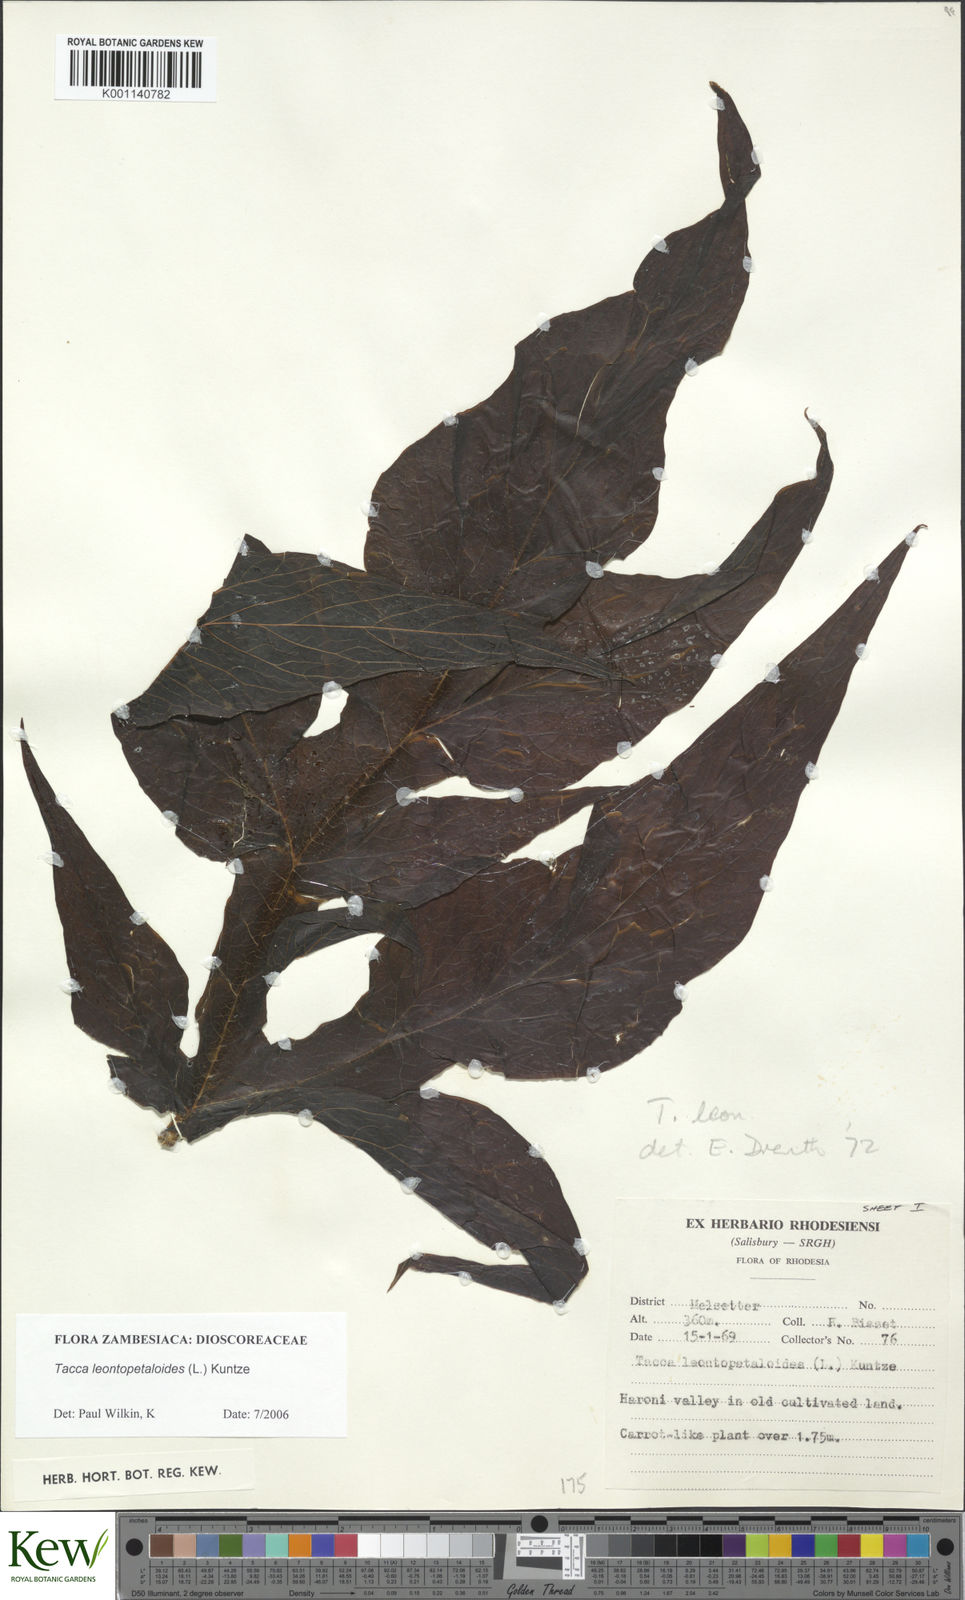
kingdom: Plantae
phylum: Tracheophyta
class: Liliopsida
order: Dioscoreales
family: Dioscoreaceae
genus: Tacca
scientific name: Tacca leontopetaloides
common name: Arrowroot
